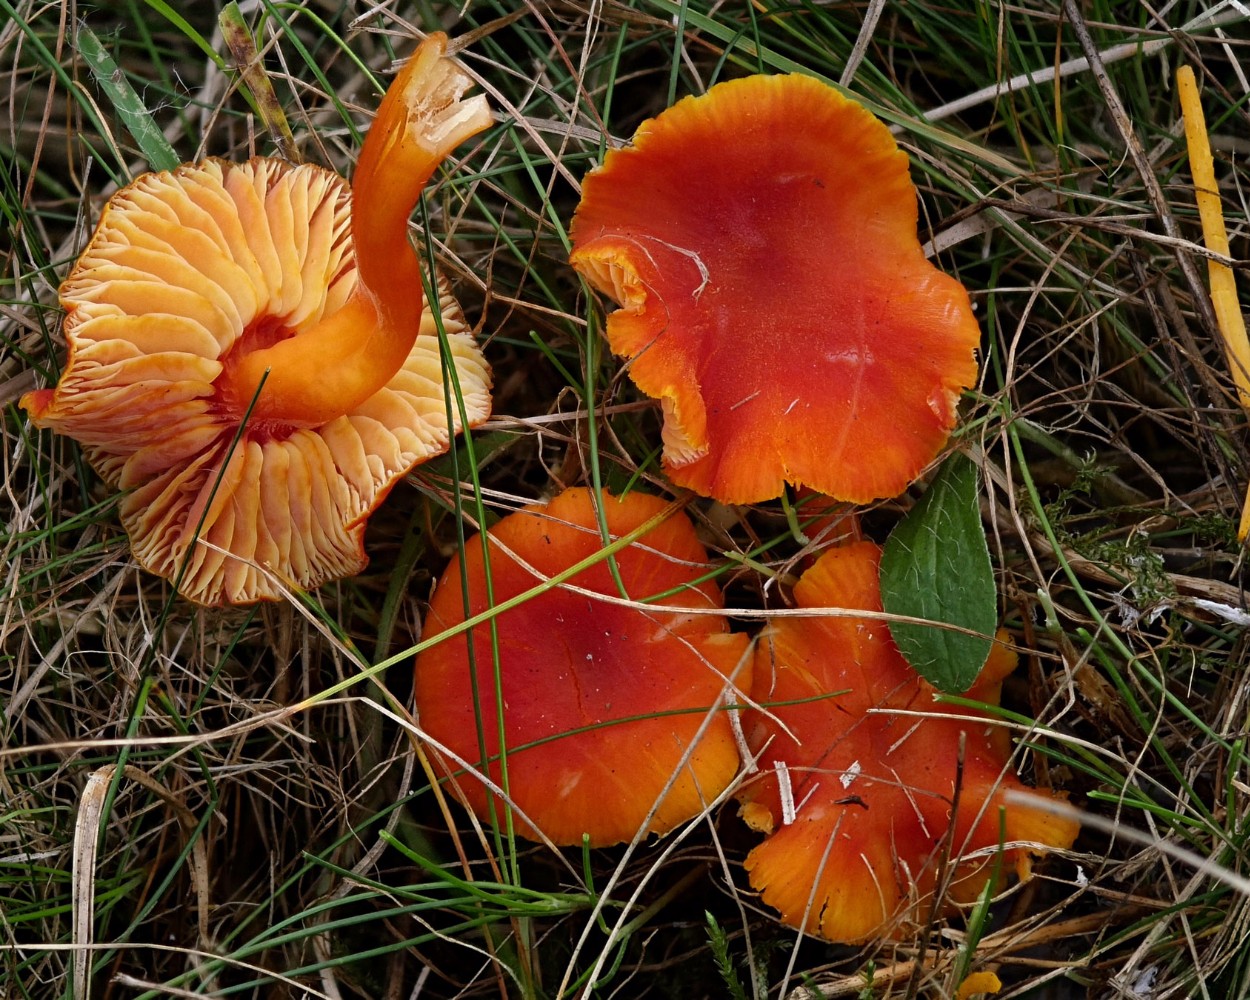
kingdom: Fungi
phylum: Basidiomycota
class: Agaricomycetes
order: Agaricales
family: Hygrophoraceae
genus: Hygrocybe
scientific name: Hygrocybe miniata
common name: mønje-vokshat
